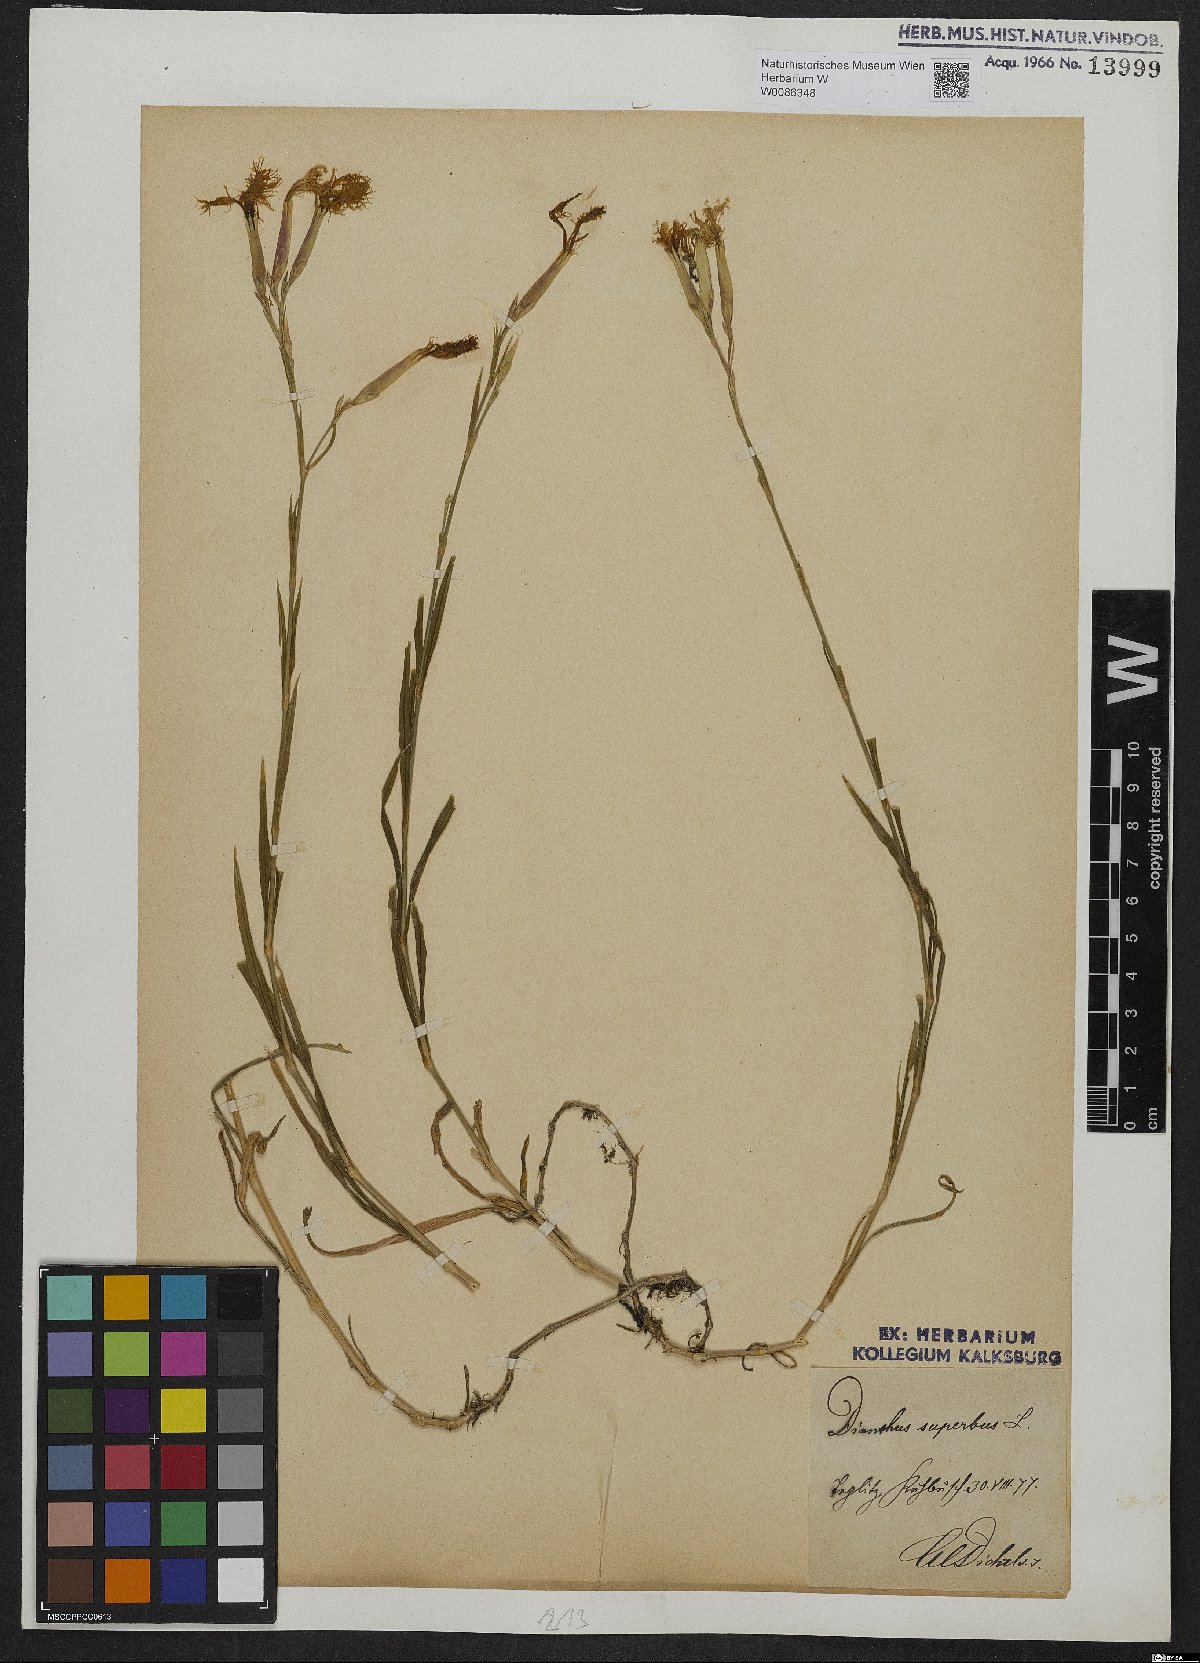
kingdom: Plantae
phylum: Tracheophyta
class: Magnoliopsida
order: Caryophyllales
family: Caryophyllaceae
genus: Dianthus
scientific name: Dianthus superbus
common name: Fringed pink
